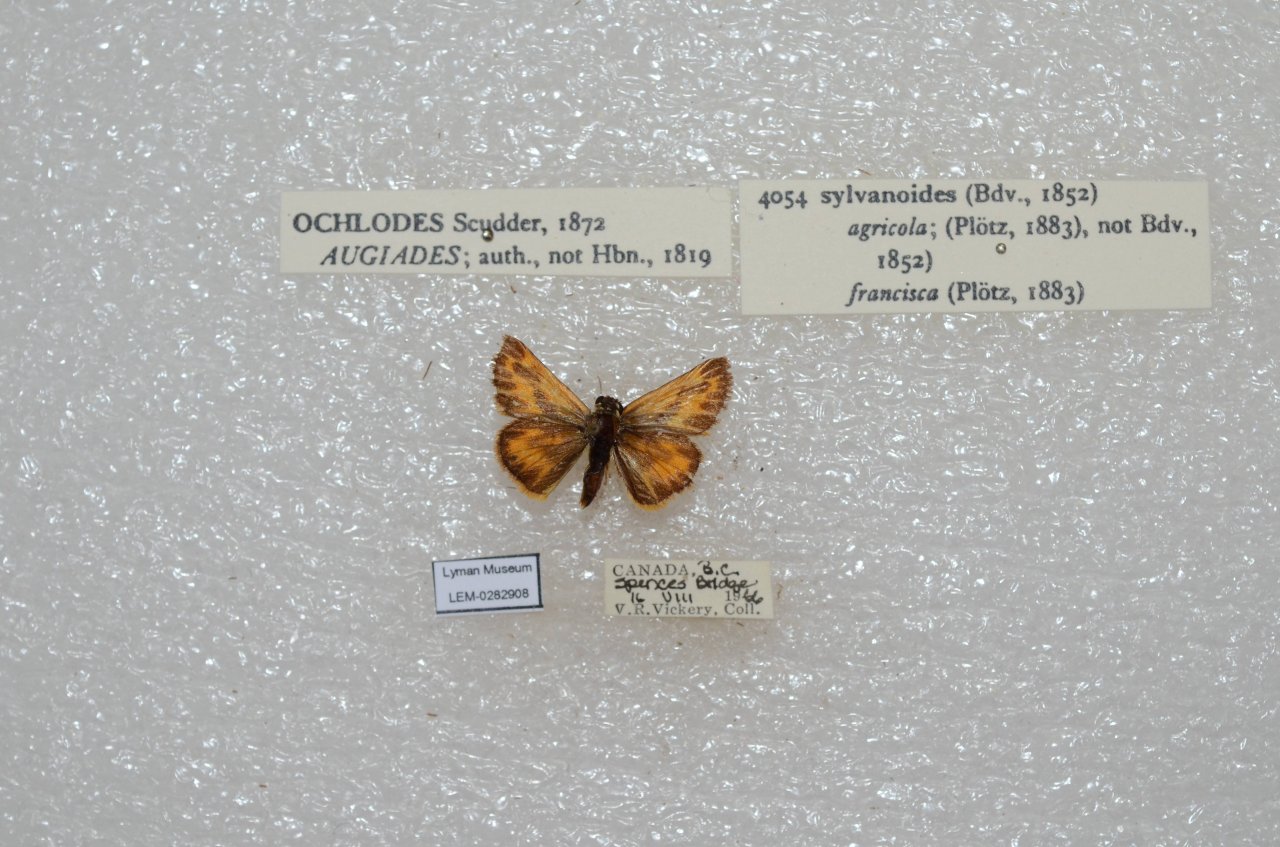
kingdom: Animalia
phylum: Arthropoda
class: Insecta
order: Lepidoptera
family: Hesperiidae
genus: Ochlodes
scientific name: Ochlodes sylvanoides
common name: Woodland Skipper
